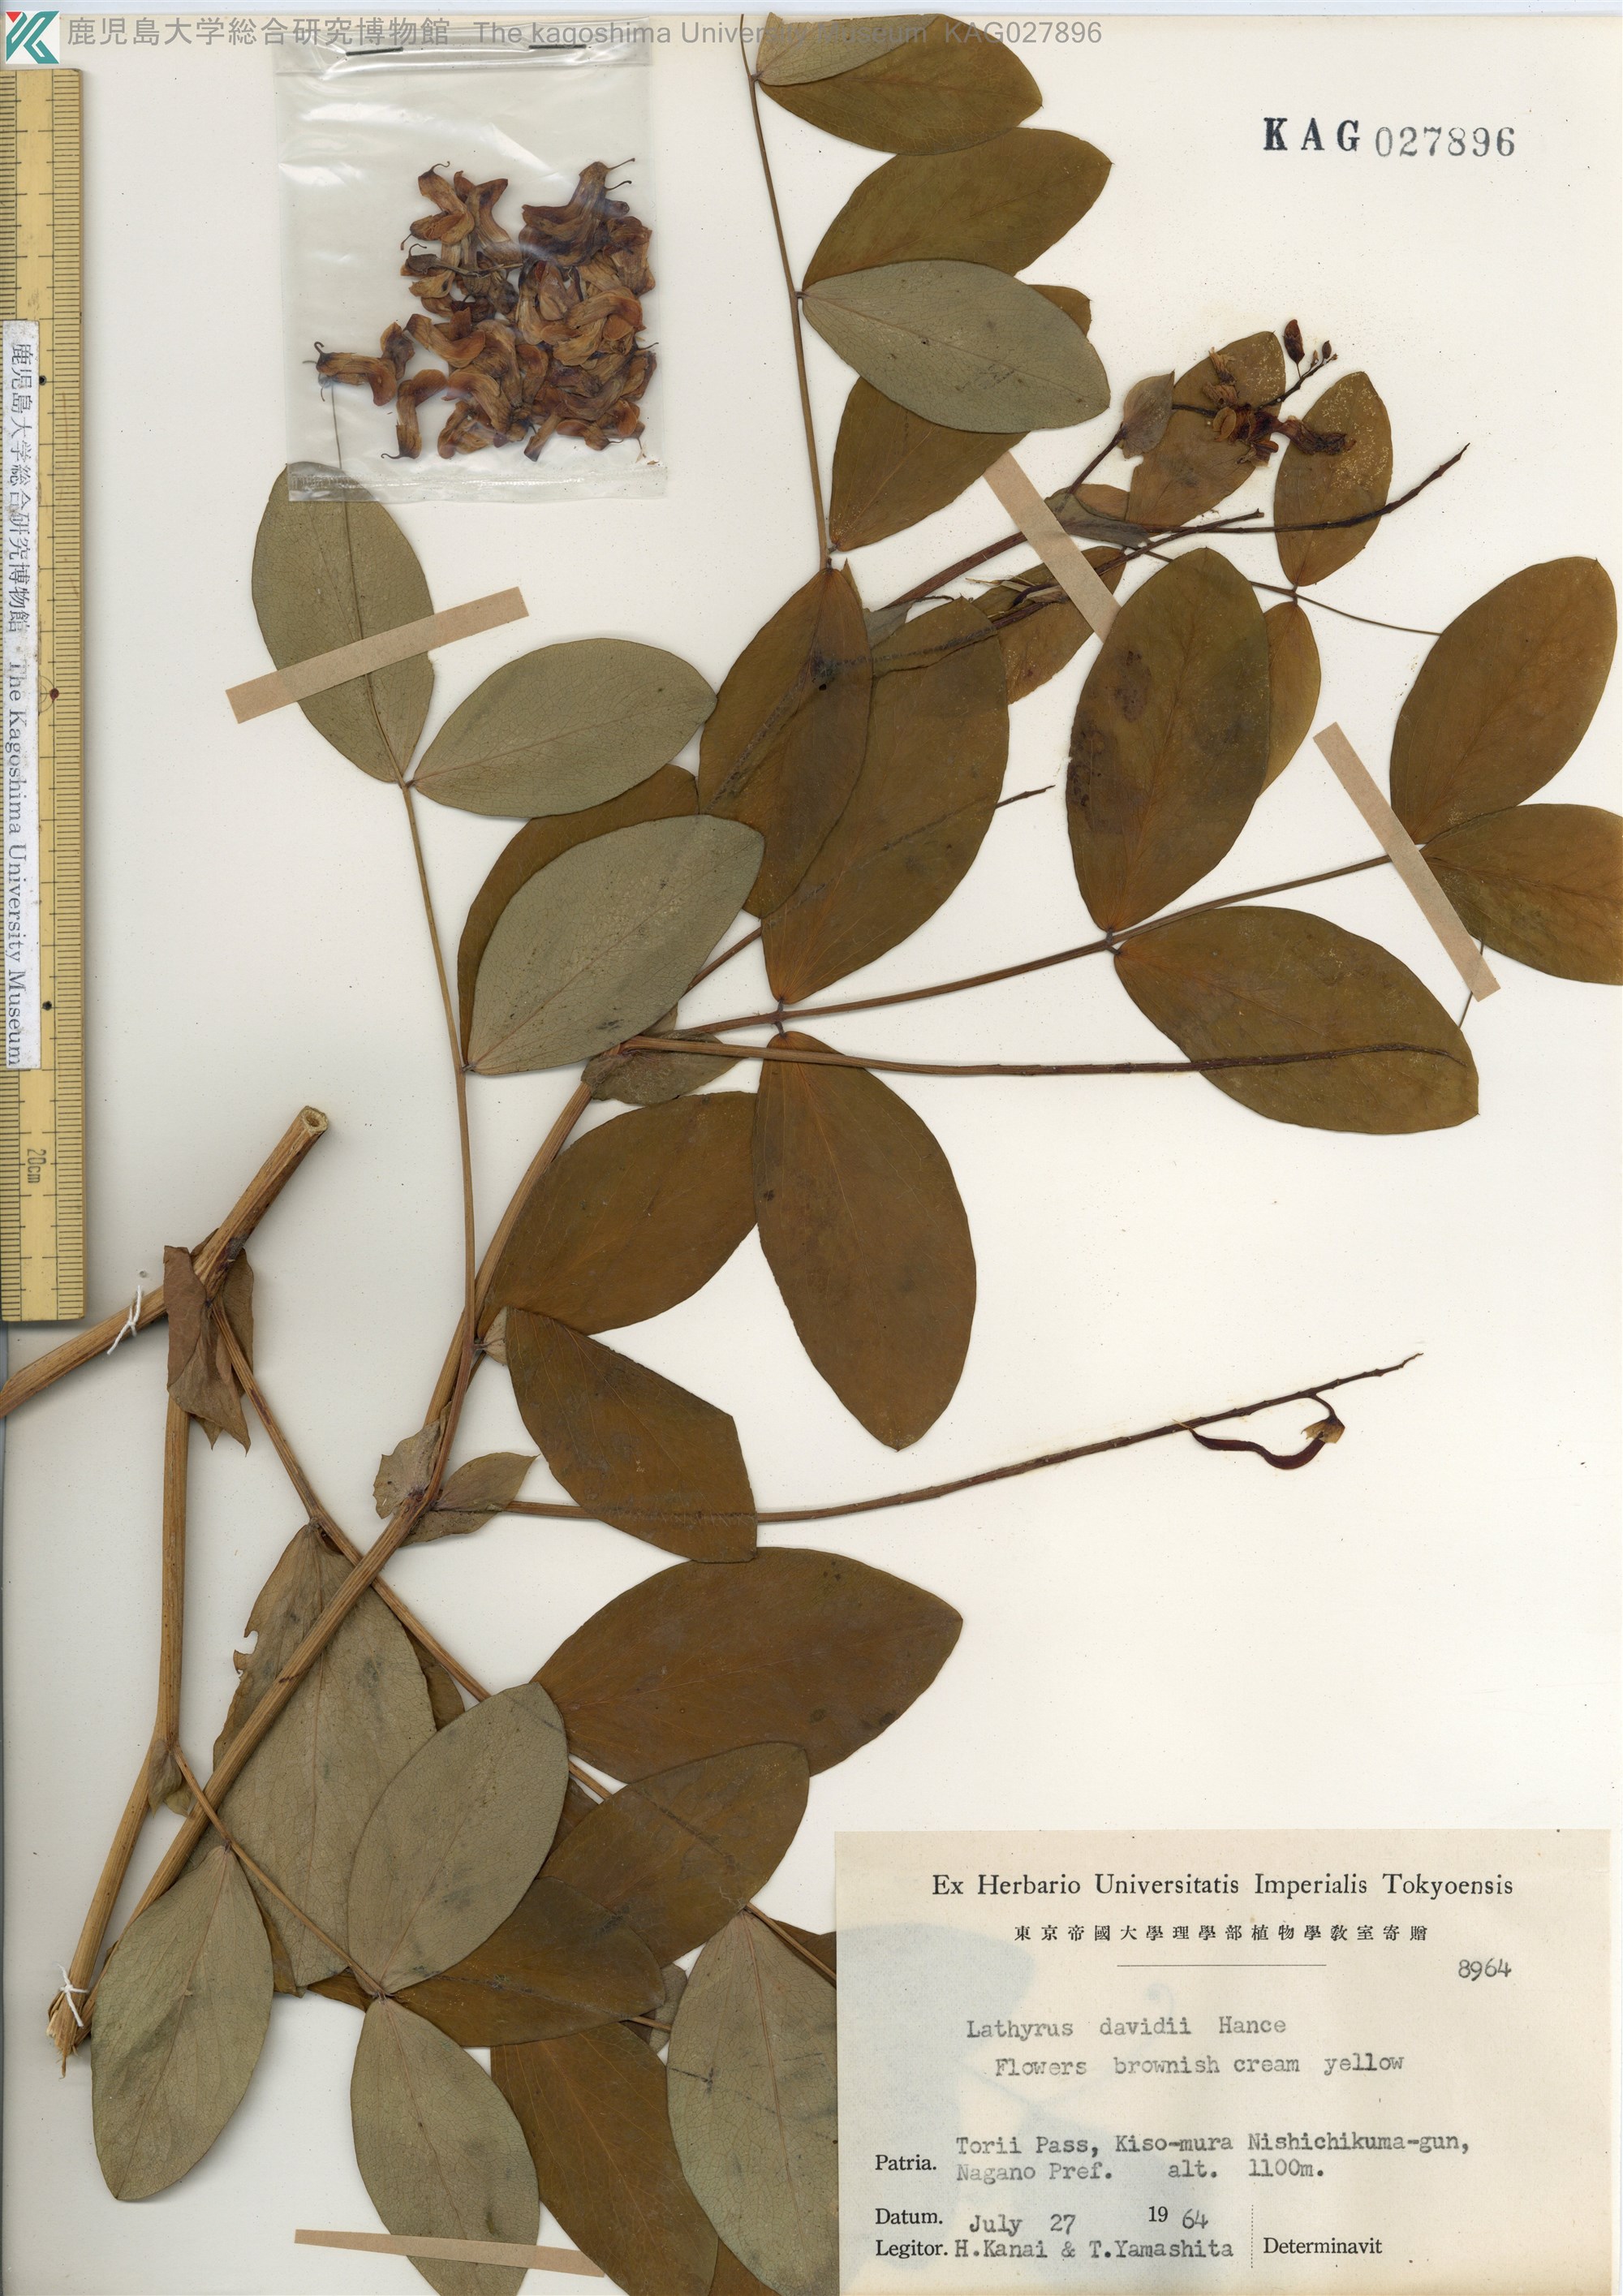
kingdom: Plantae
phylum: Tracheophyta
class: Magnoliopsida
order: Fabales
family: Fabaceae
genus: Lathyrus
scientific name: Lathyrus davidii
